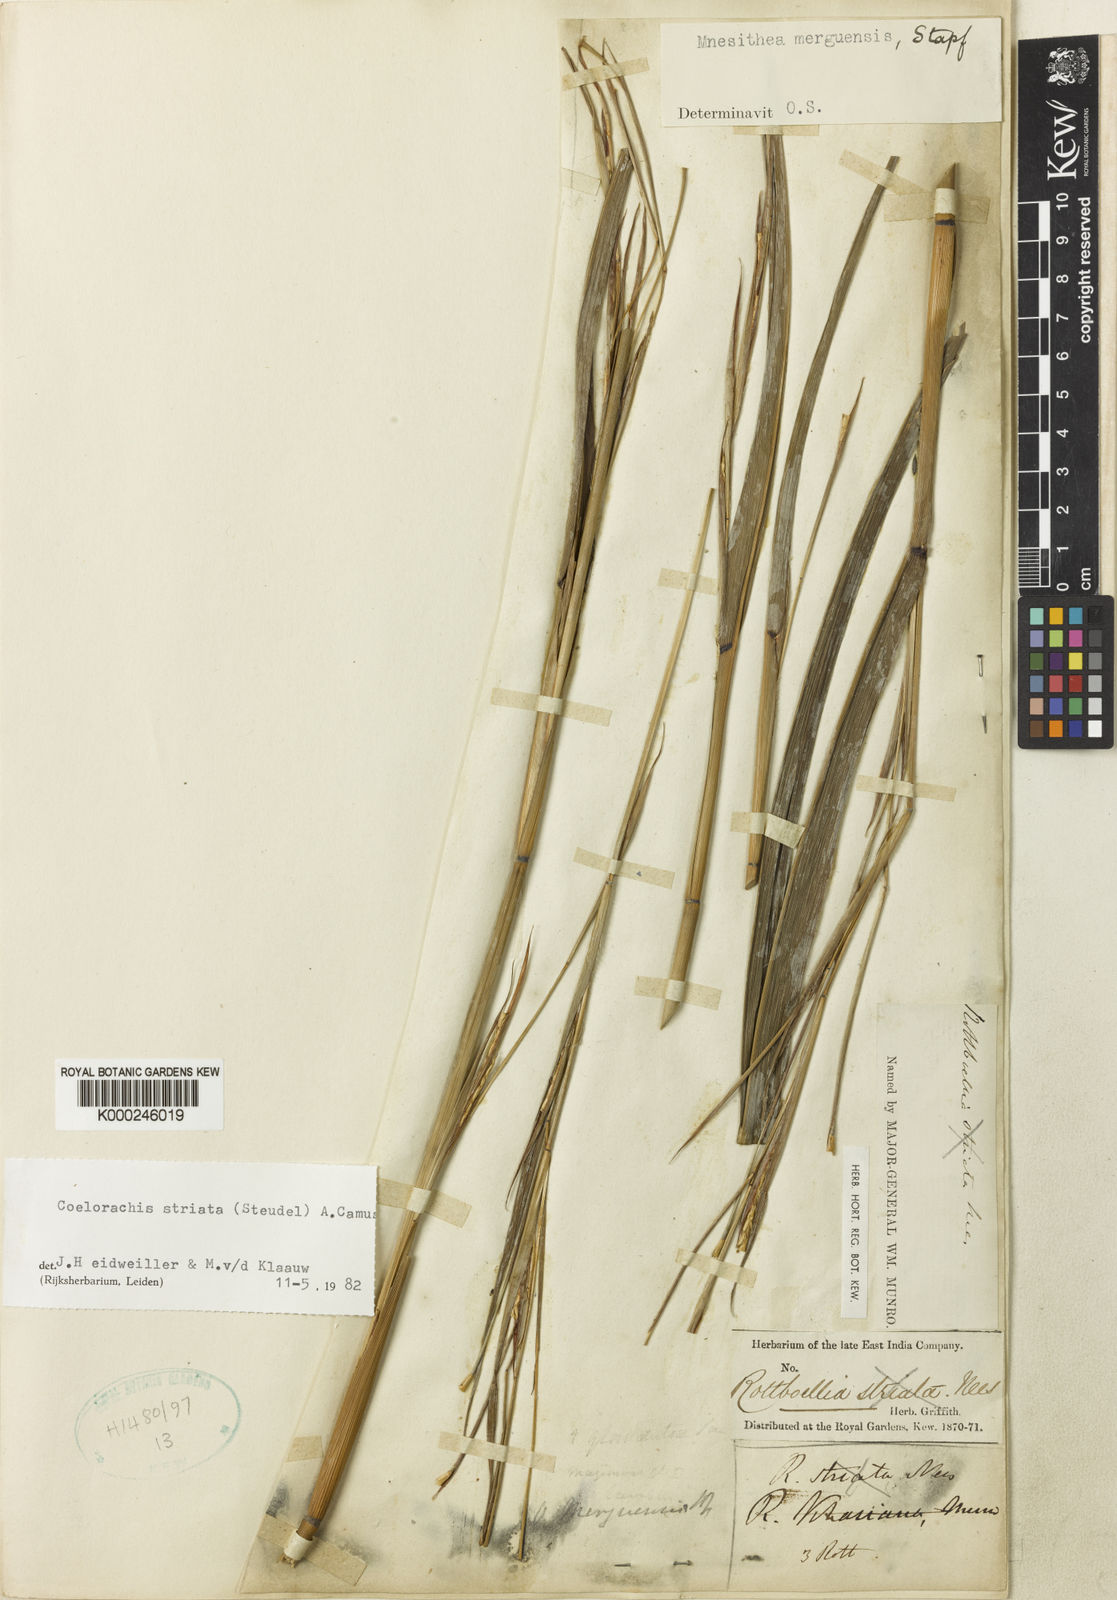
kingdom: Plantae
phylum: Tracheophyta
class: Liliopsida
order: Poales
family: Poaceae
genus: Rottboellia
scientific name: Rottboellia striata
